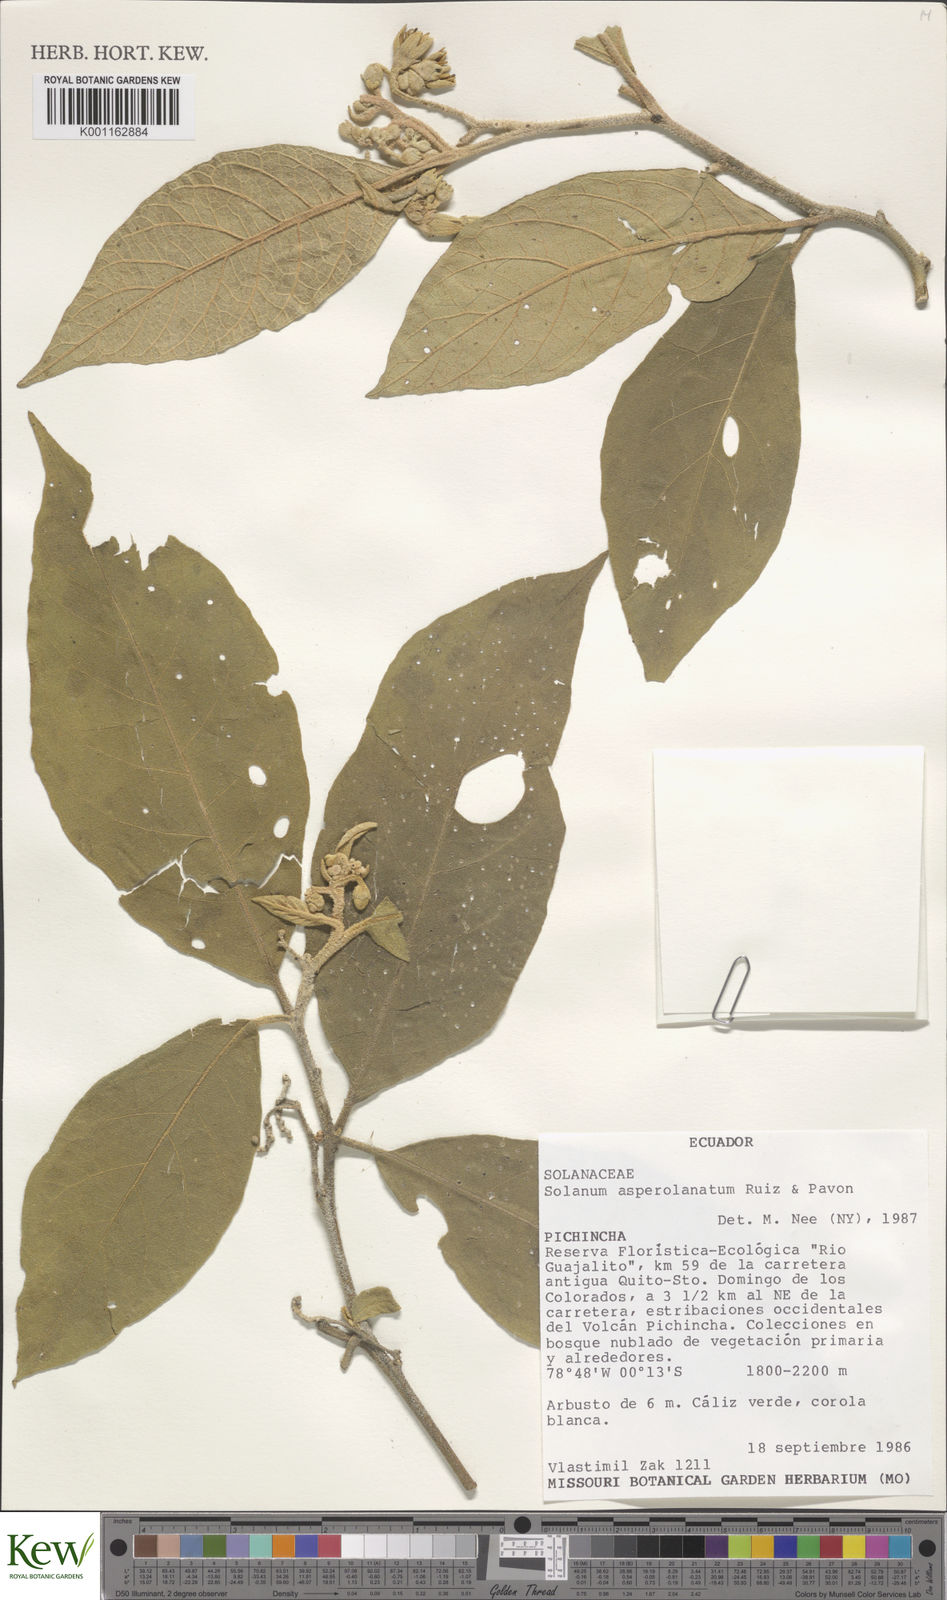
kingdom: Plantae
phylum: Tracheophyta
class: Magnoliopsida
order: Solanales
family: Solanaceae
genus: Solanum
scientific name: Solanum asperolanatum
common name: Devil's-fig
